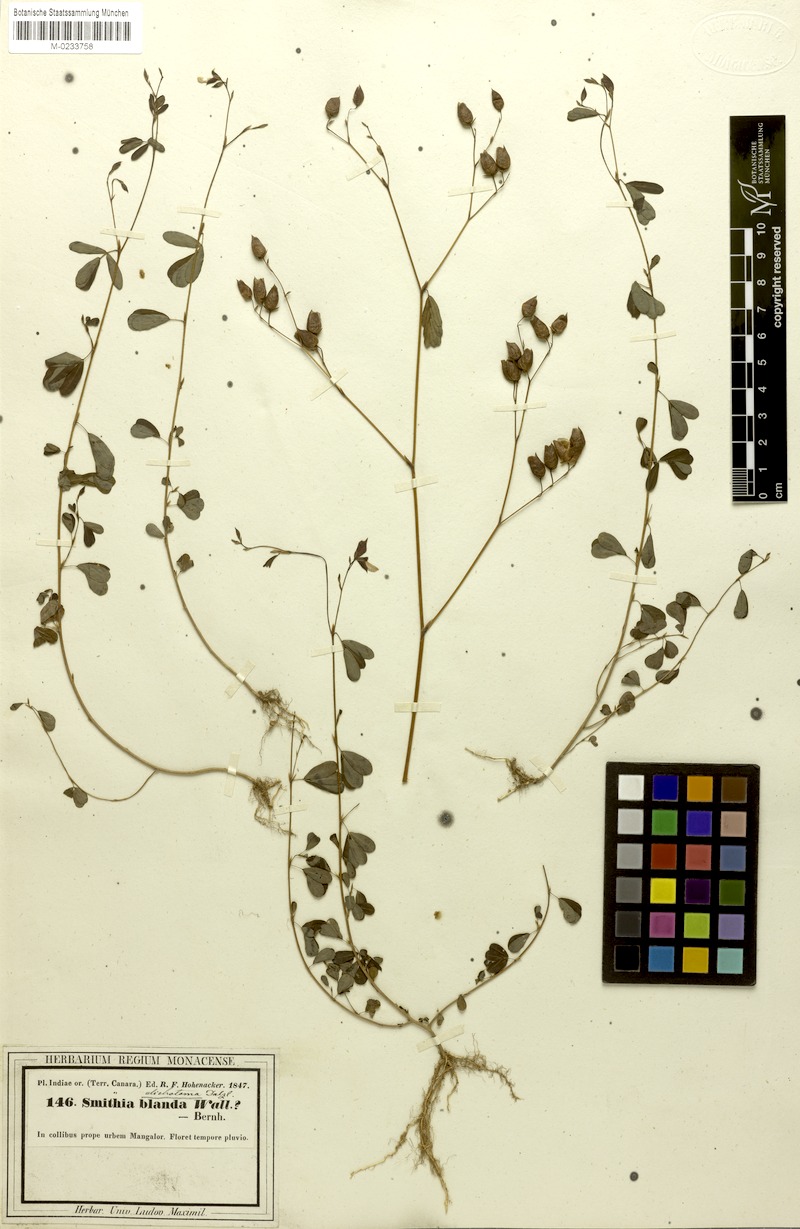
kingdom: Plantae
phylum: Tracheophyta
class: Magnoliopsida
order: Fabales
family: Fabaceae
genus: Smithia
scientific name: Smithia salsuginea
